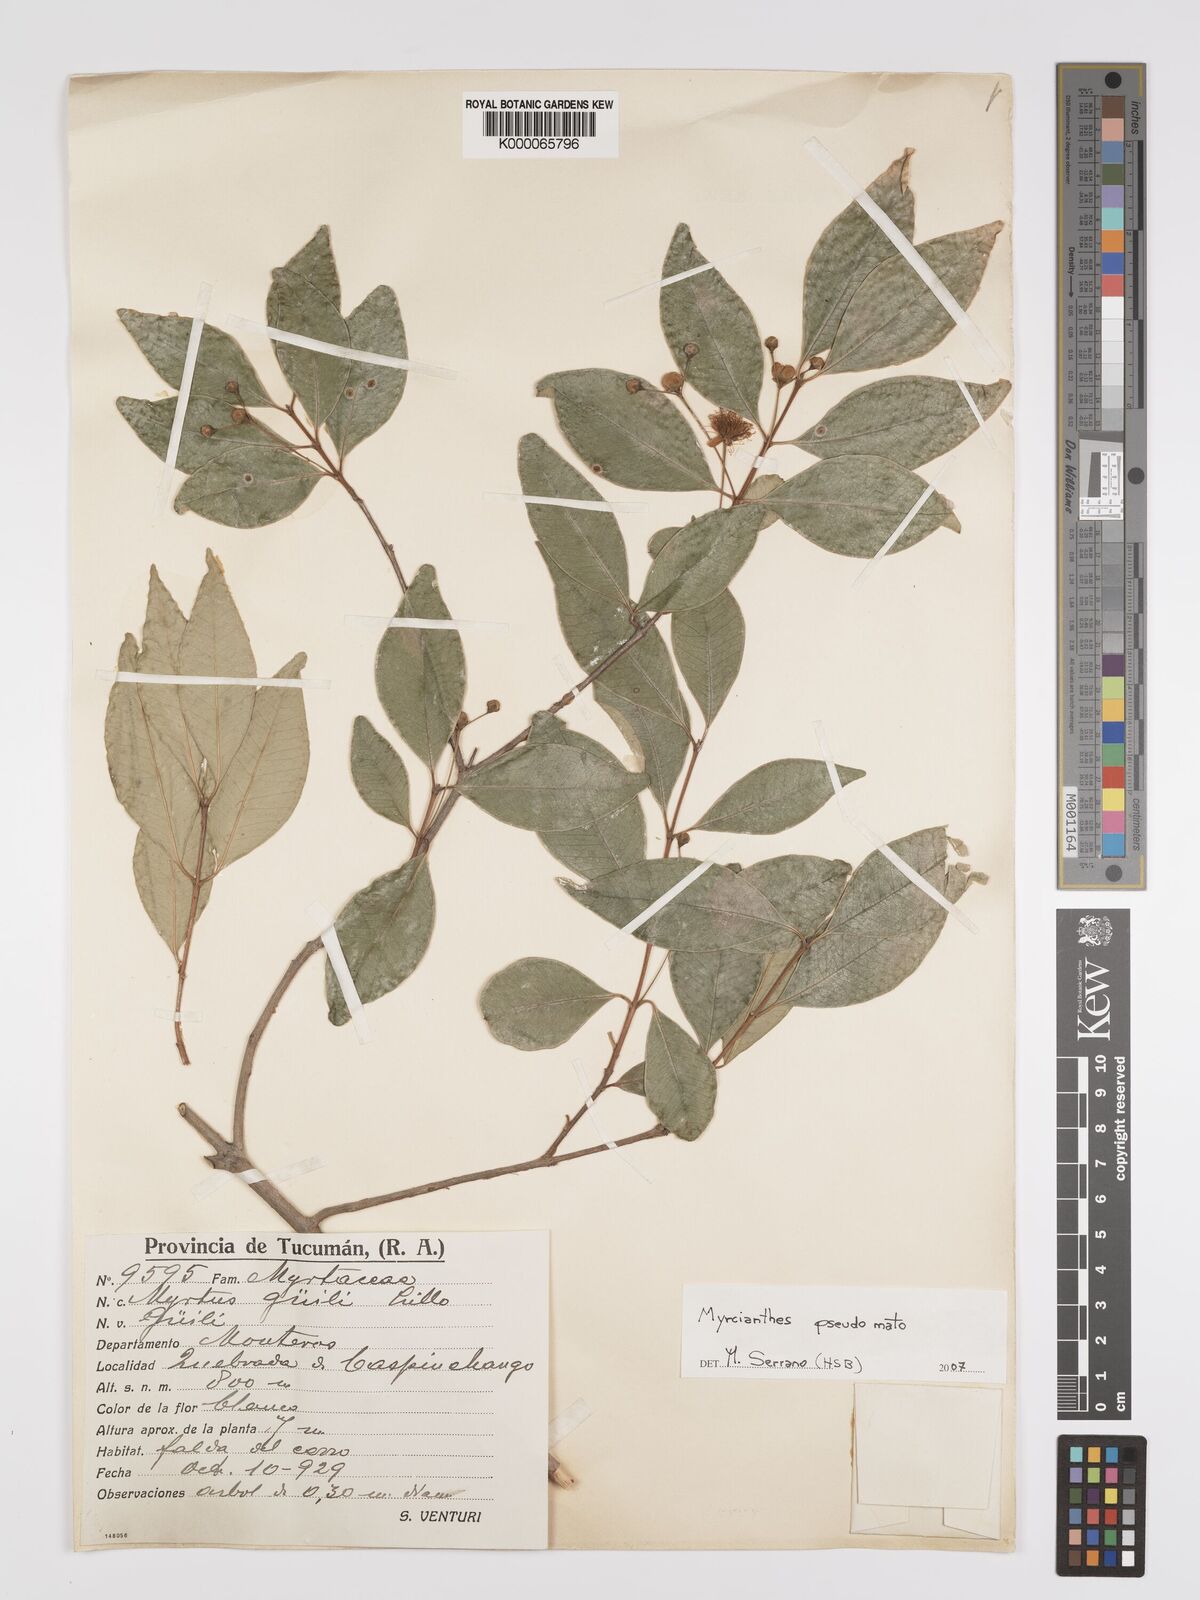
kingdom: Plantae
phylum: Tracheophyta
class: Magnoliopsida
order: Myrtales
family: Myrtaceae
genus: Myrcianthes
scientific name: Myrcianthes
